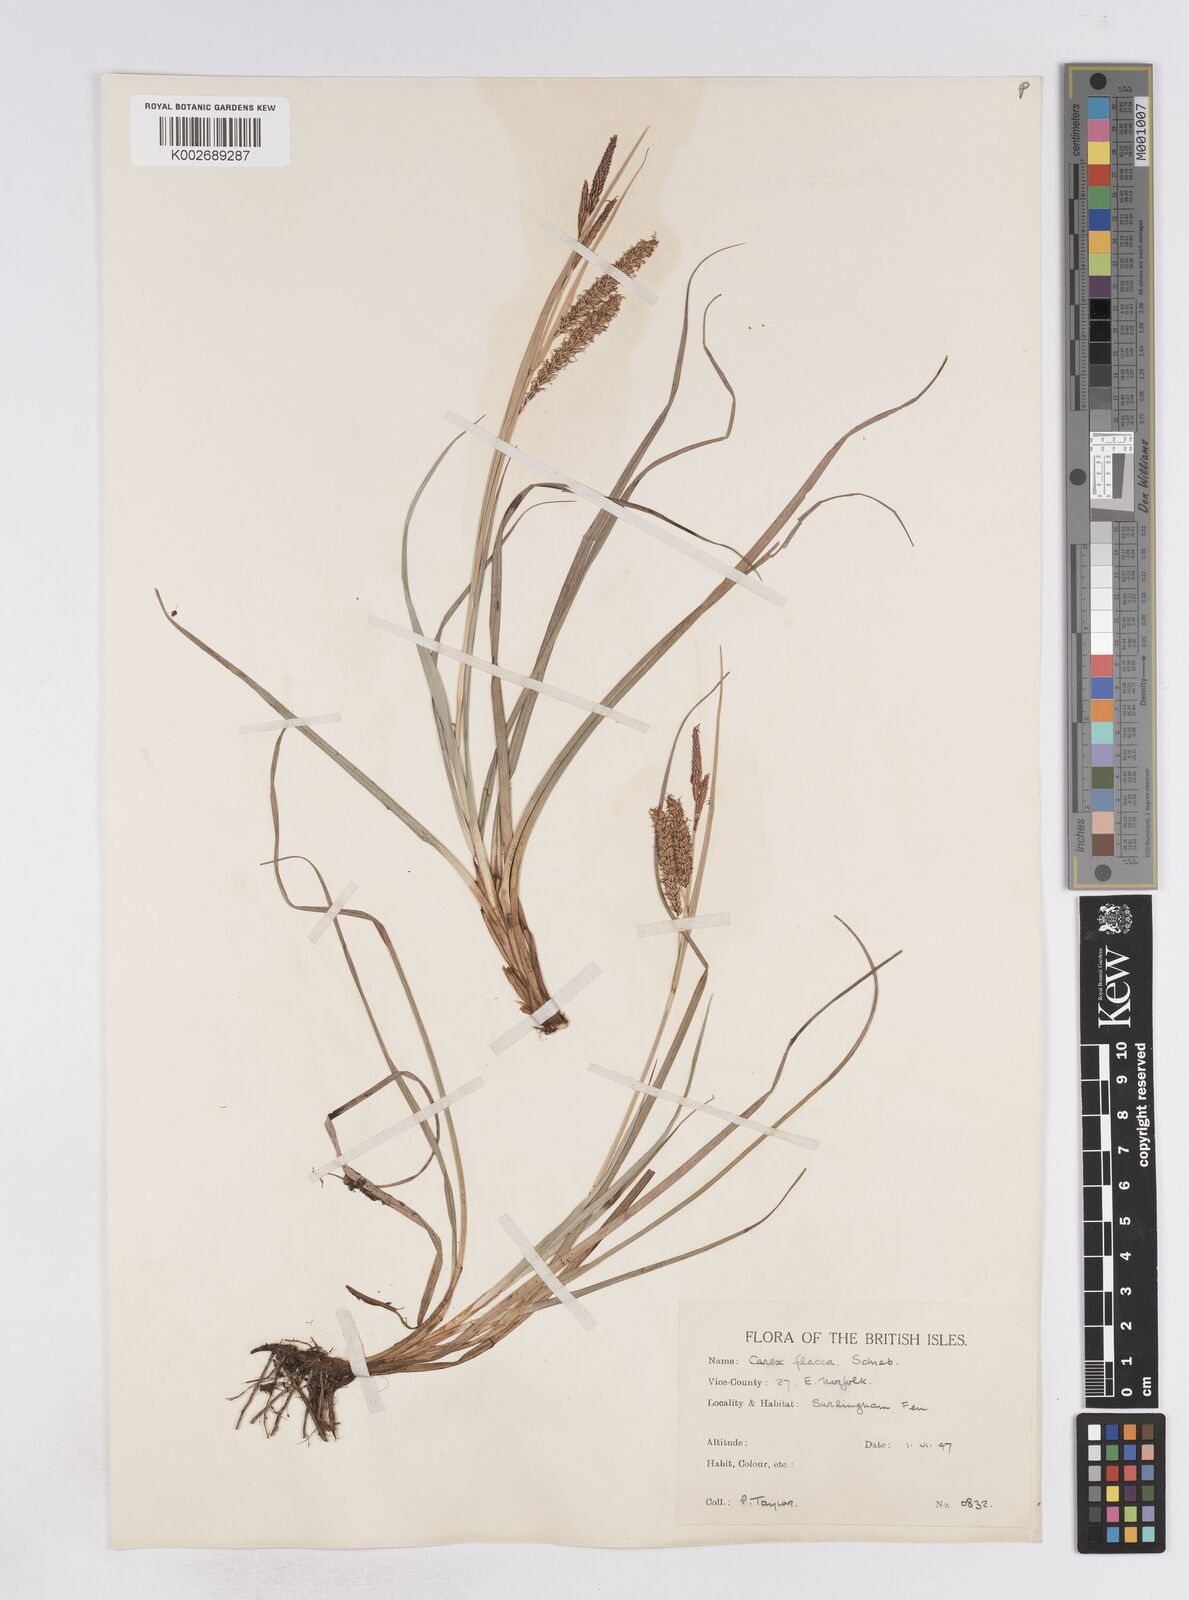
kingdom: Plantae
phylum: Tracheophyta
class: Liliopsida
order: Poales
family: Cyperaceae
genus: Carex
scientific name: Carex flacca
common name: Glaucous sedge
